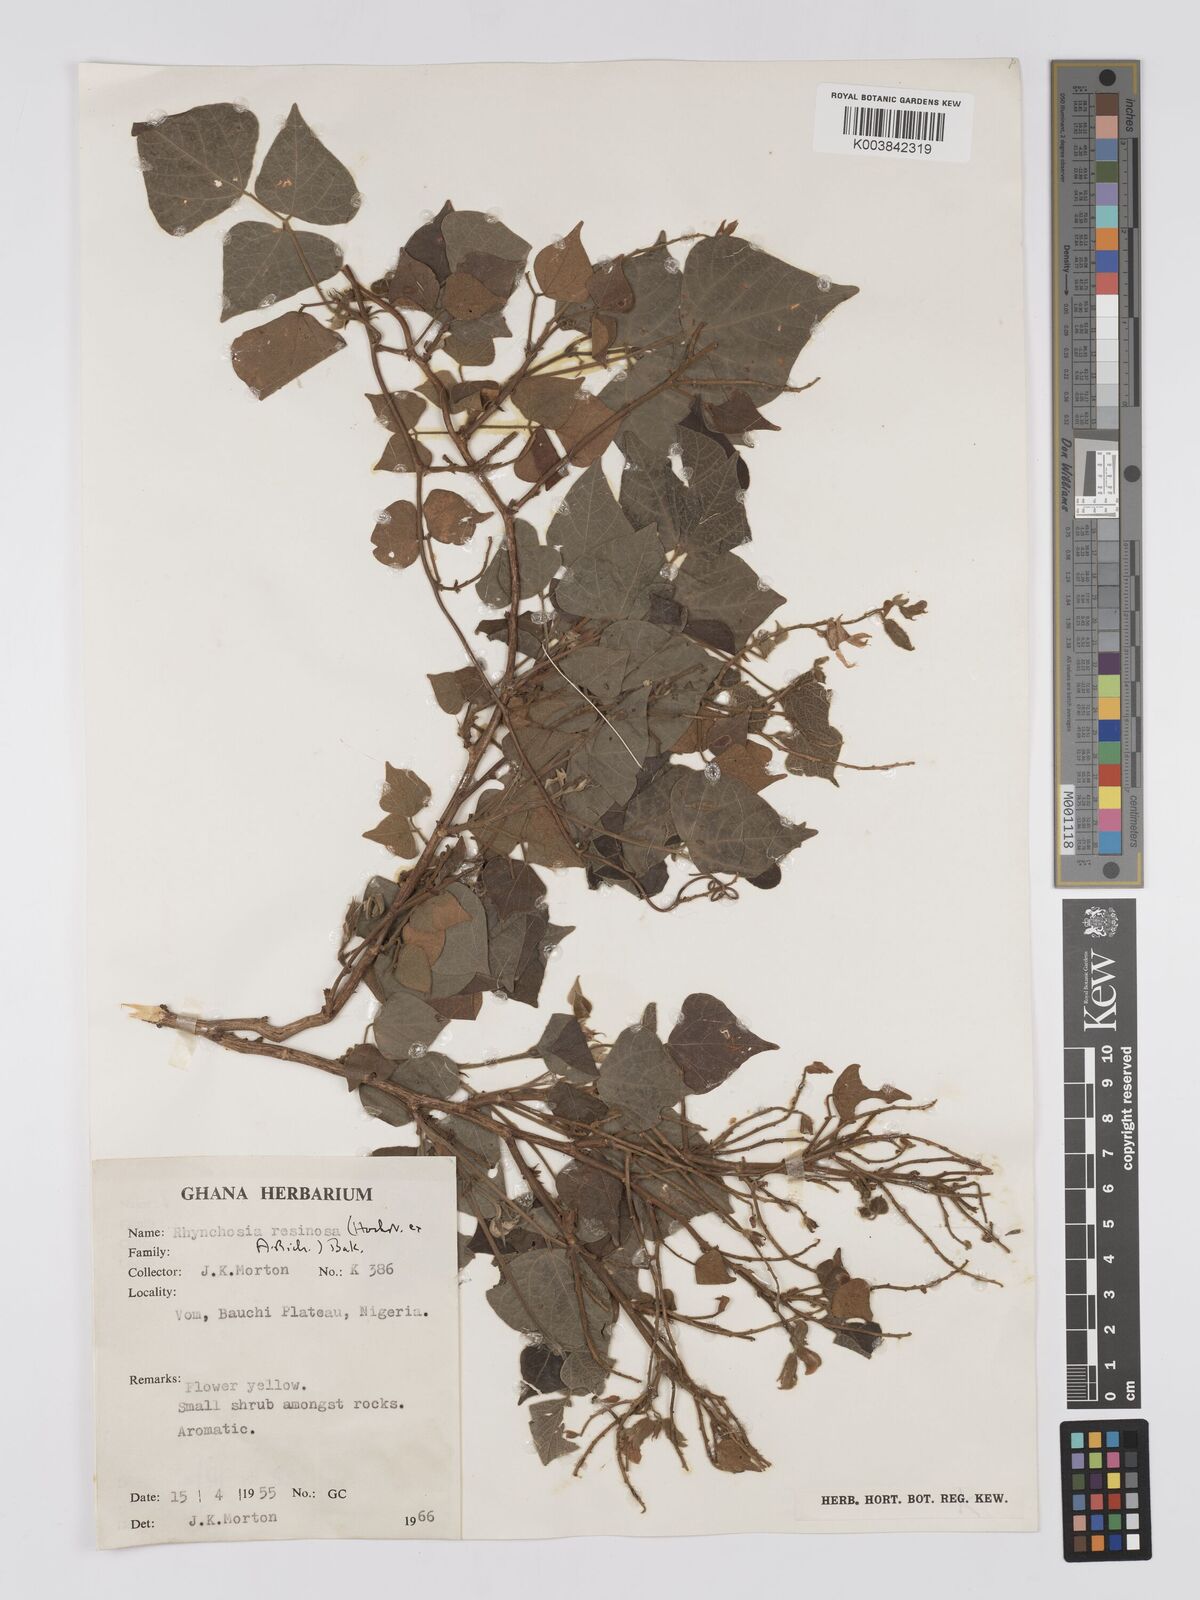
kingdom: Plantae
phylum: Tracheophyta
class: Magnoliopsida
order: Fabales
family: Fabaceae
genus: Rhynchosia
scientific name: Rhynchosia resinosa
